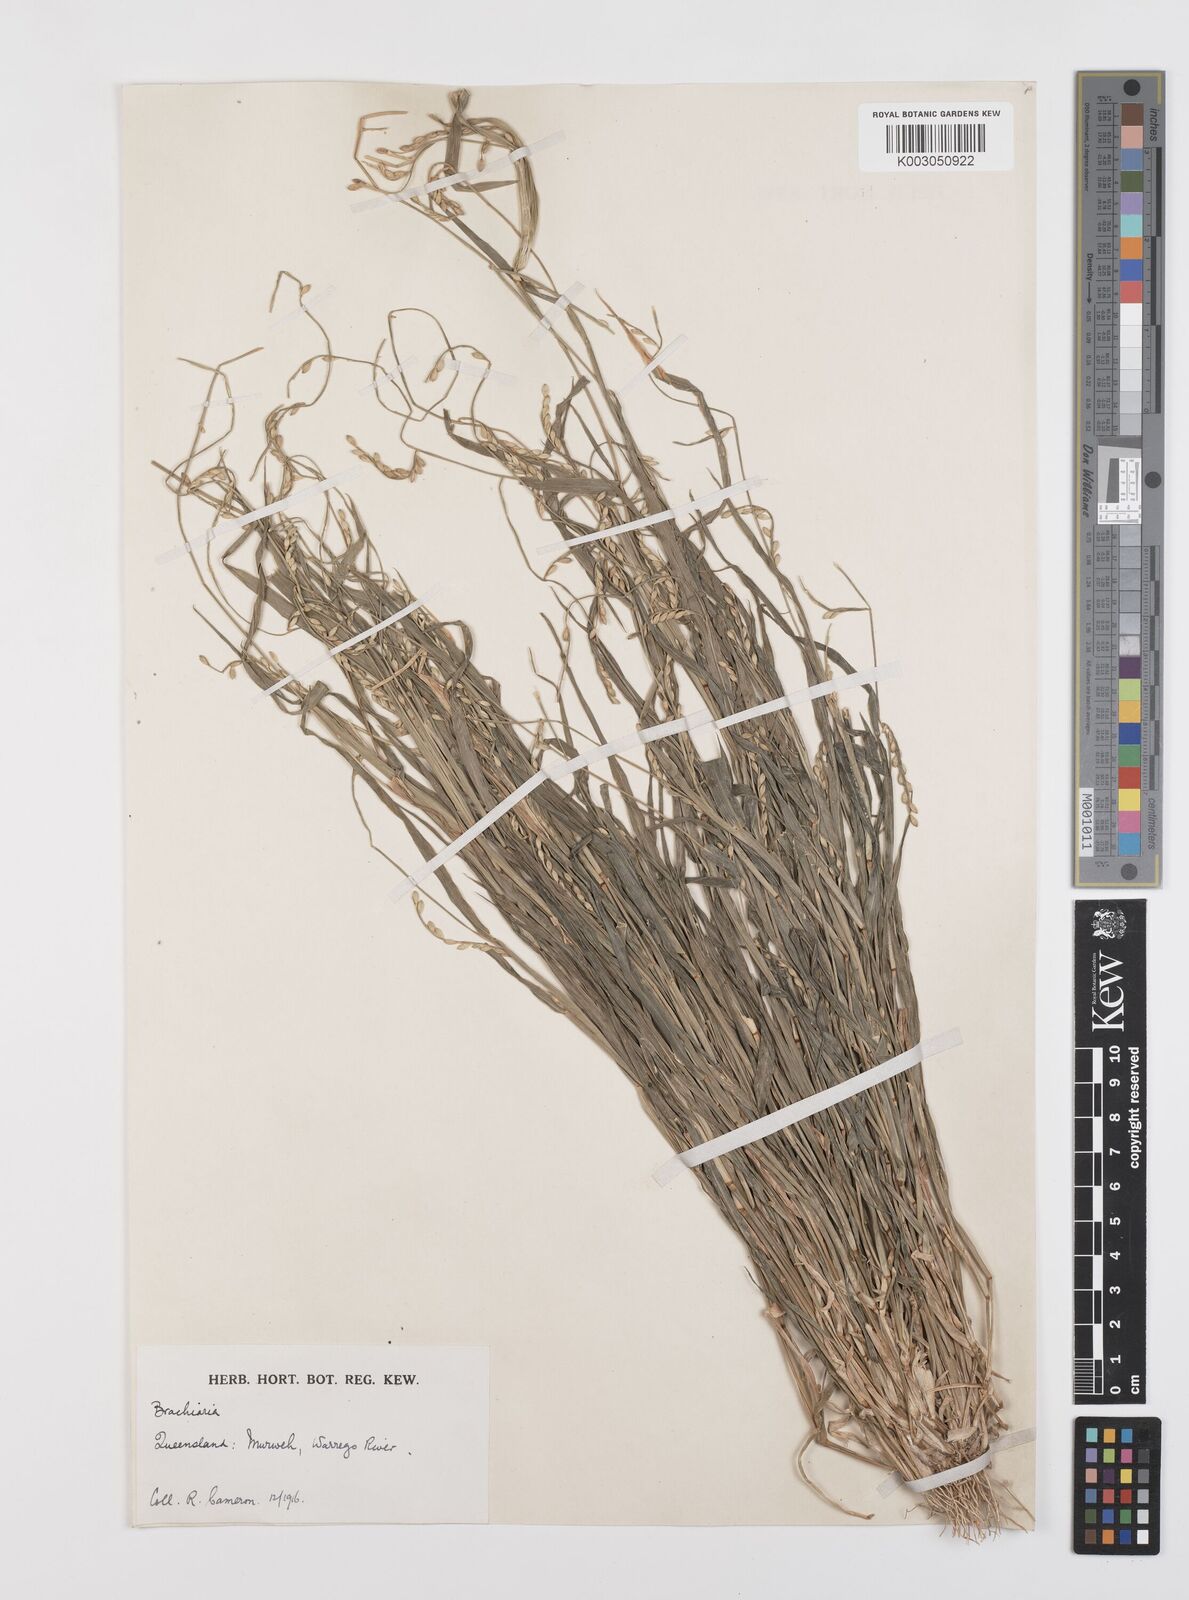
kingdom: Plantae
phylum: Tracheophyta
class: Liliopsida
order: Poales
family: Poaceae
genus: Urochloa
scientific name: Urochloa subquadripara
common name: Armgrass millet
